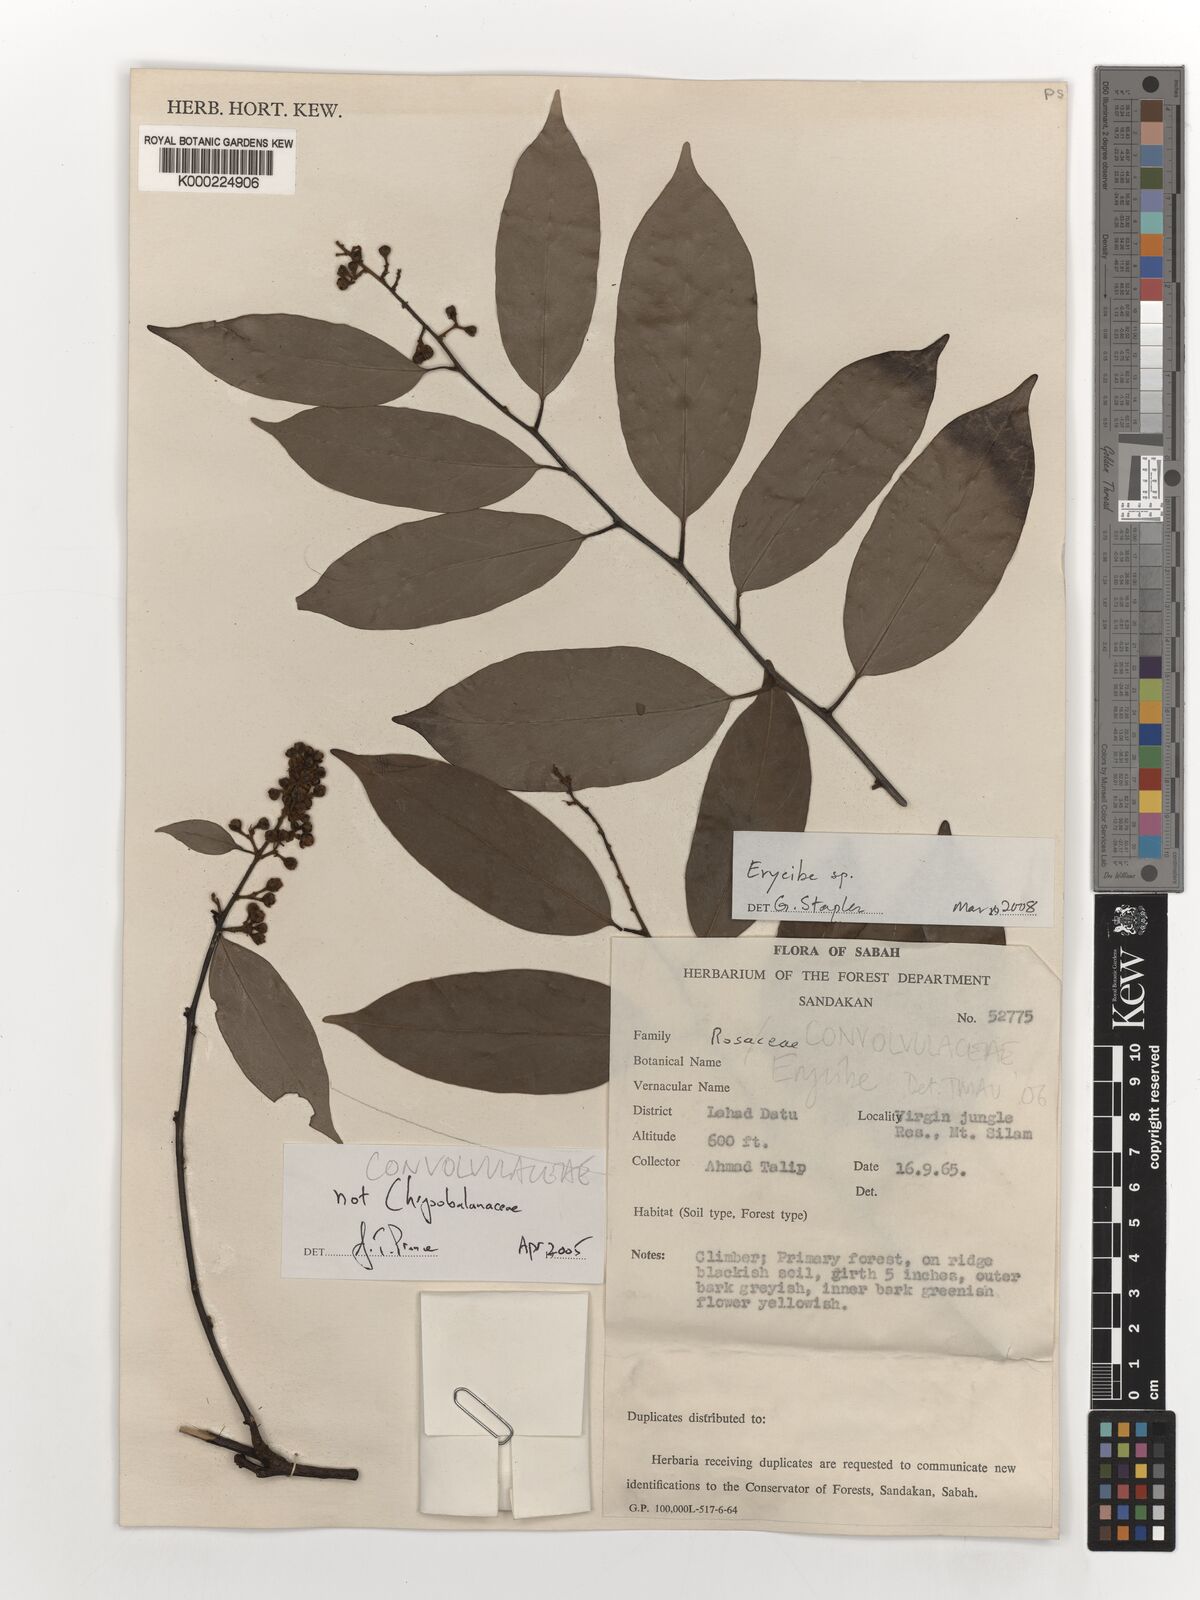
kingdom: Plantae
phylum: Tracheophyta
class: Magnoliopsida
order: Solanales
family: Convolvulaceae
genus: Erycibe
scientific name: Erycibe
